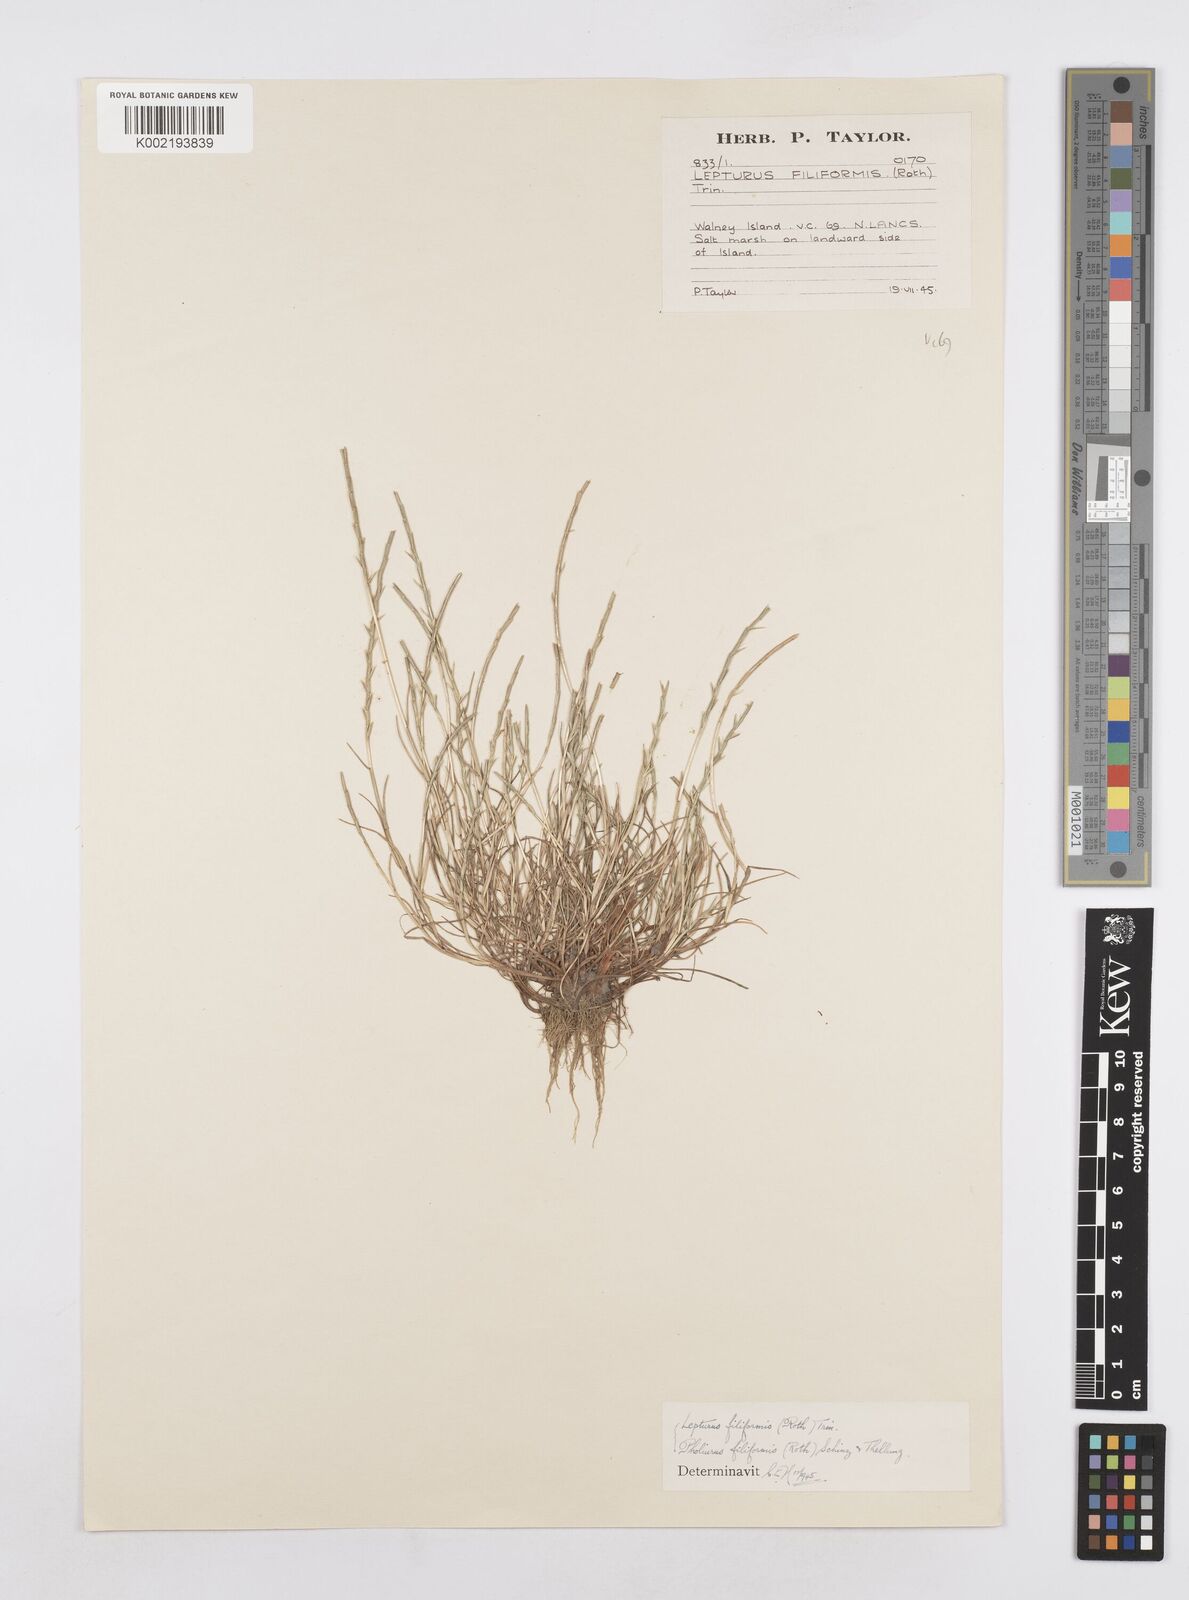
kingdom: Plantae
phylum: Tracheophyta
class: Liliopsida
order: Poales
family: Poaceae
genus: Parapholis
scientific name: Parapholis strigosa
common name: Hard-grass
